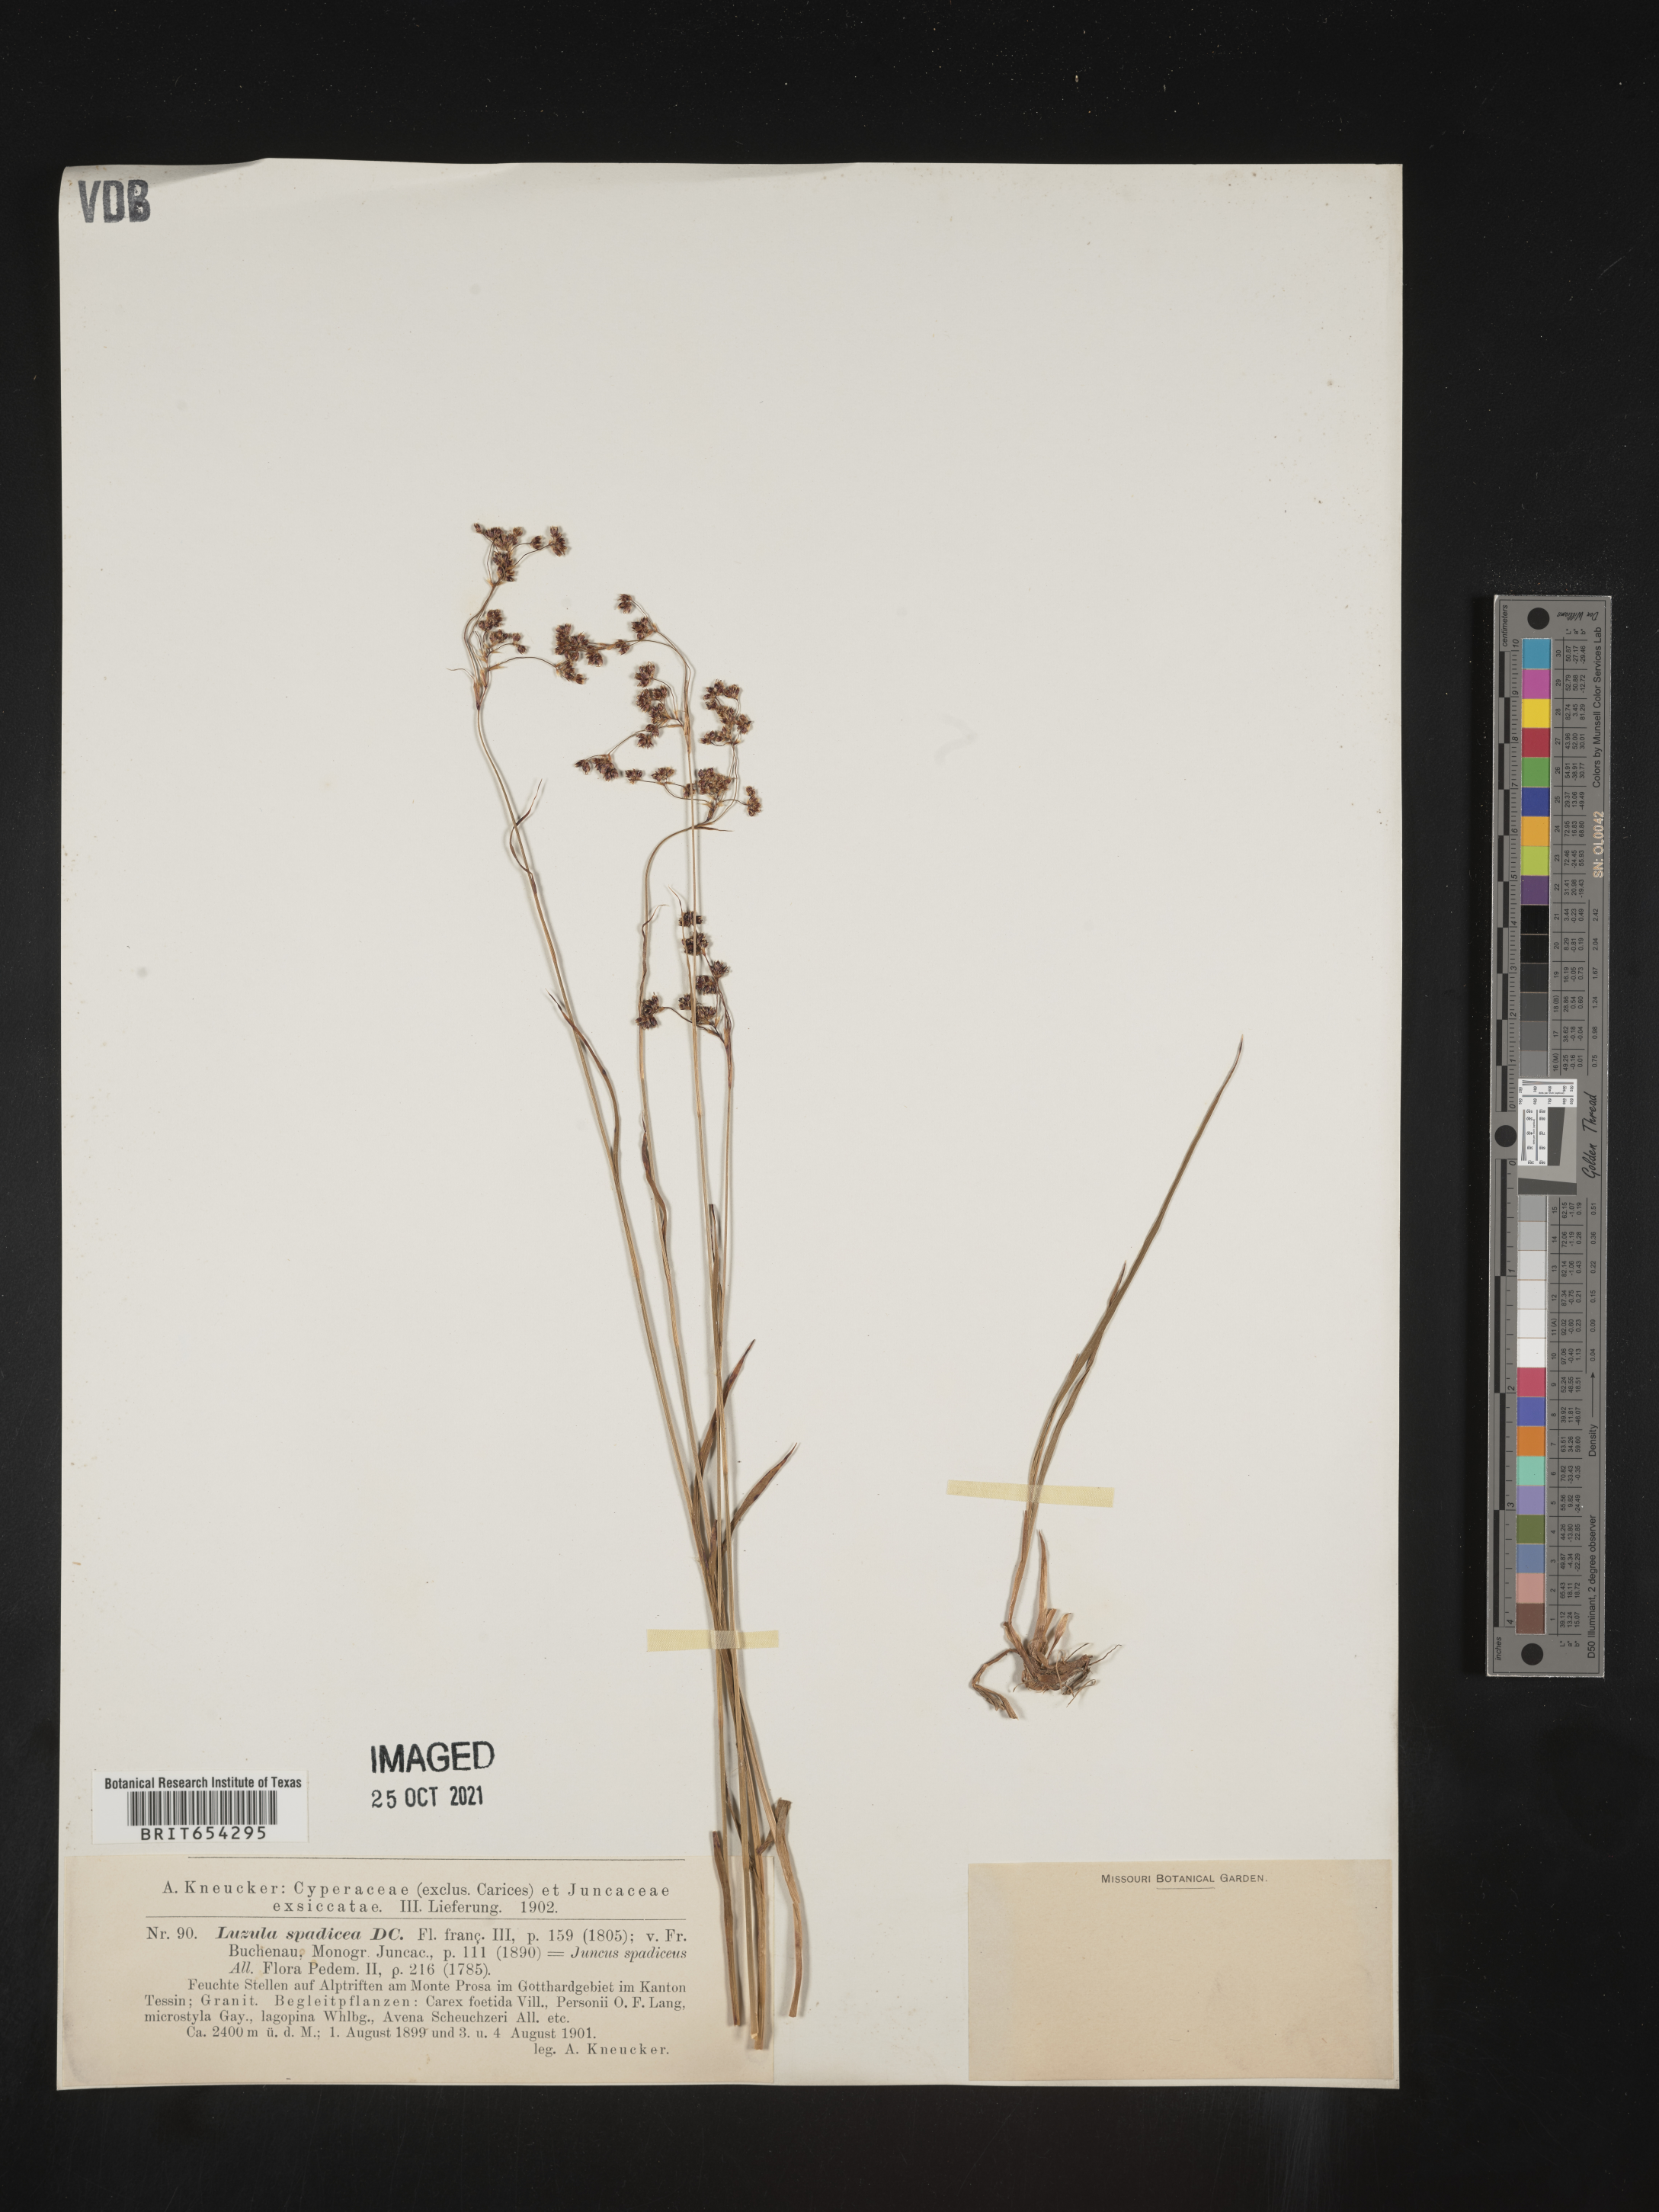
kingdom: Plantae
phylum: Tracheophyta
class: Liliopsida
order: Poales
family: Juncaceae
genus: Luzula
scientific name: Luzula
